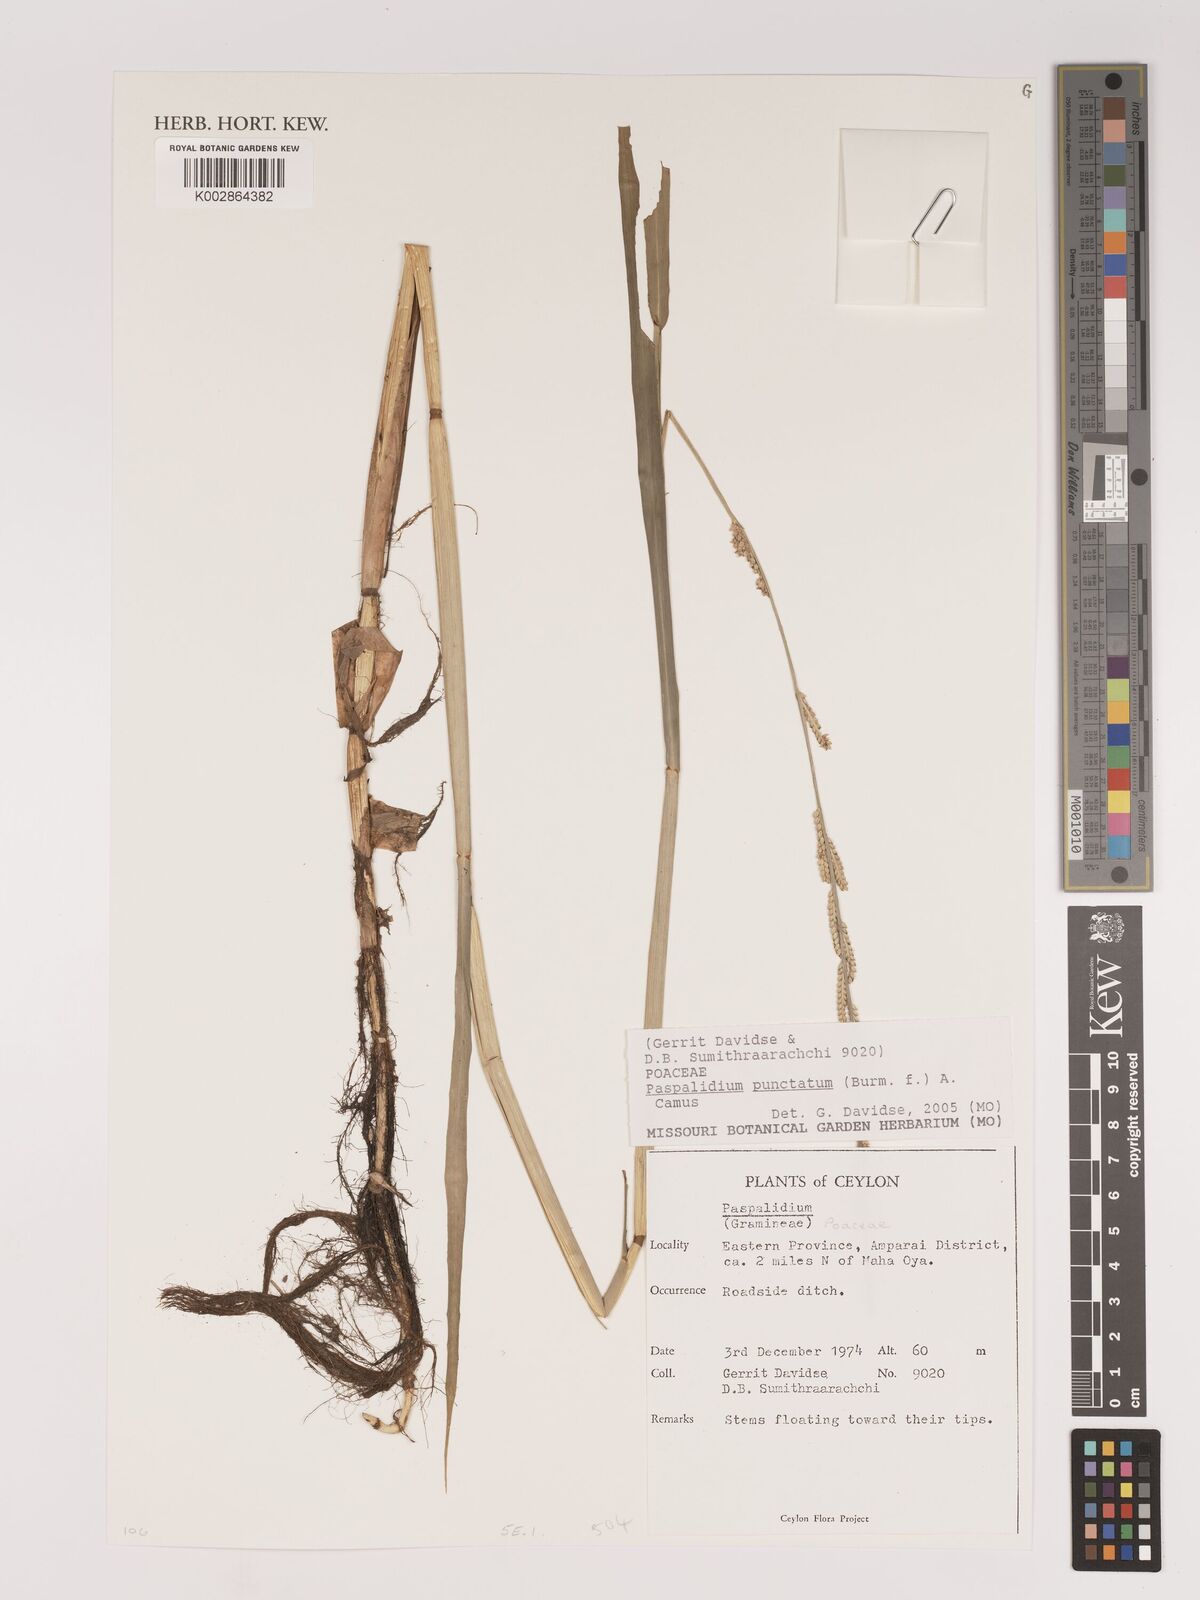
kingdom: Plantae
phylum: Tracheophyta
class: Liliopsida
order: Poales
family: Poaceae
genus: Setaria
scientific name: Setaria punctata
